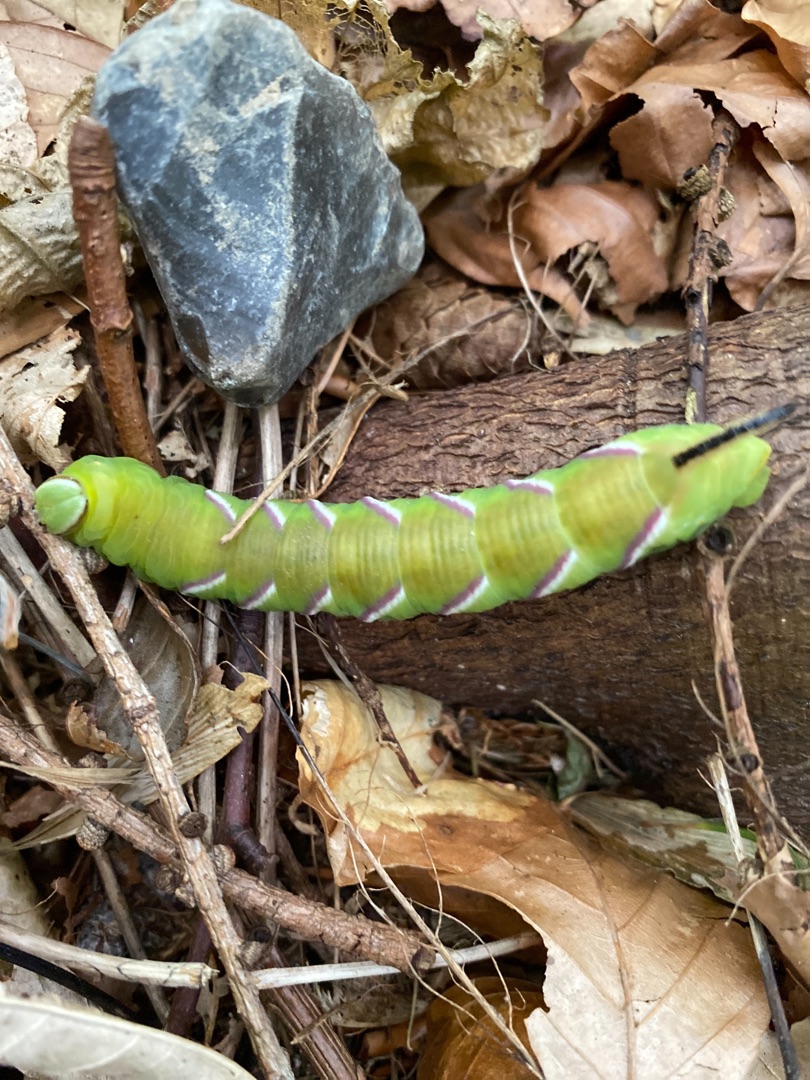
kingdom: Animalia
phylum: Arthropoda
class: Insecta
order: Lepidoptera
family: Sphingidae
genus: Sphinx
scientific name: Sphinx ligustri
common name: Ligustersværmer
